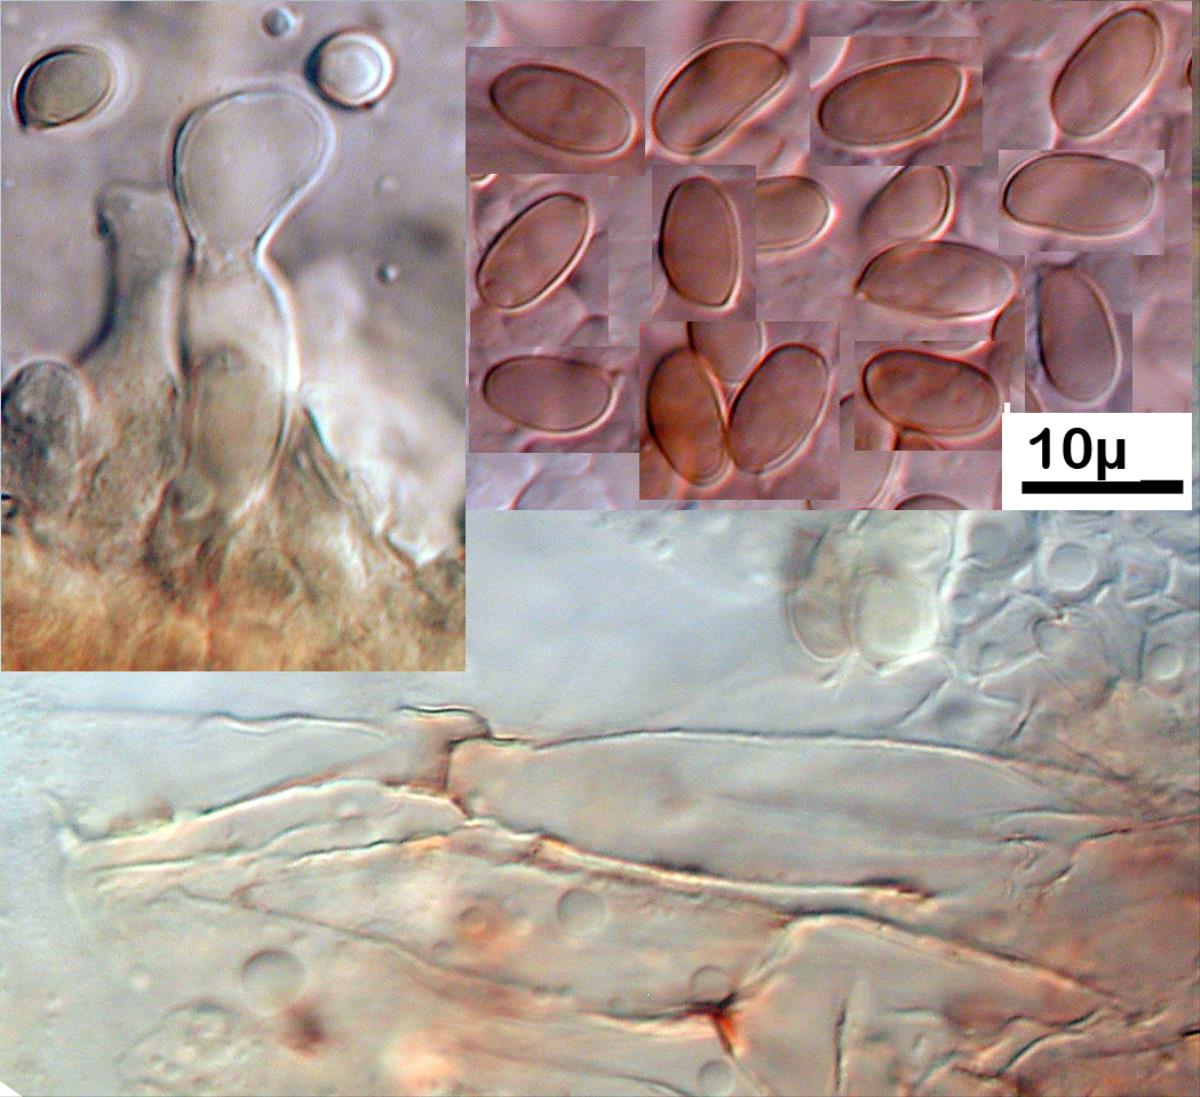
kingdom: Fungi
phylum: Basidiomycota
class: Agaricomycetes
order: Agaricales
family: Tubariaceae
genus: Tubaria
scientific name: Tubaria furfuracea
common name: Scurfy twiglet
